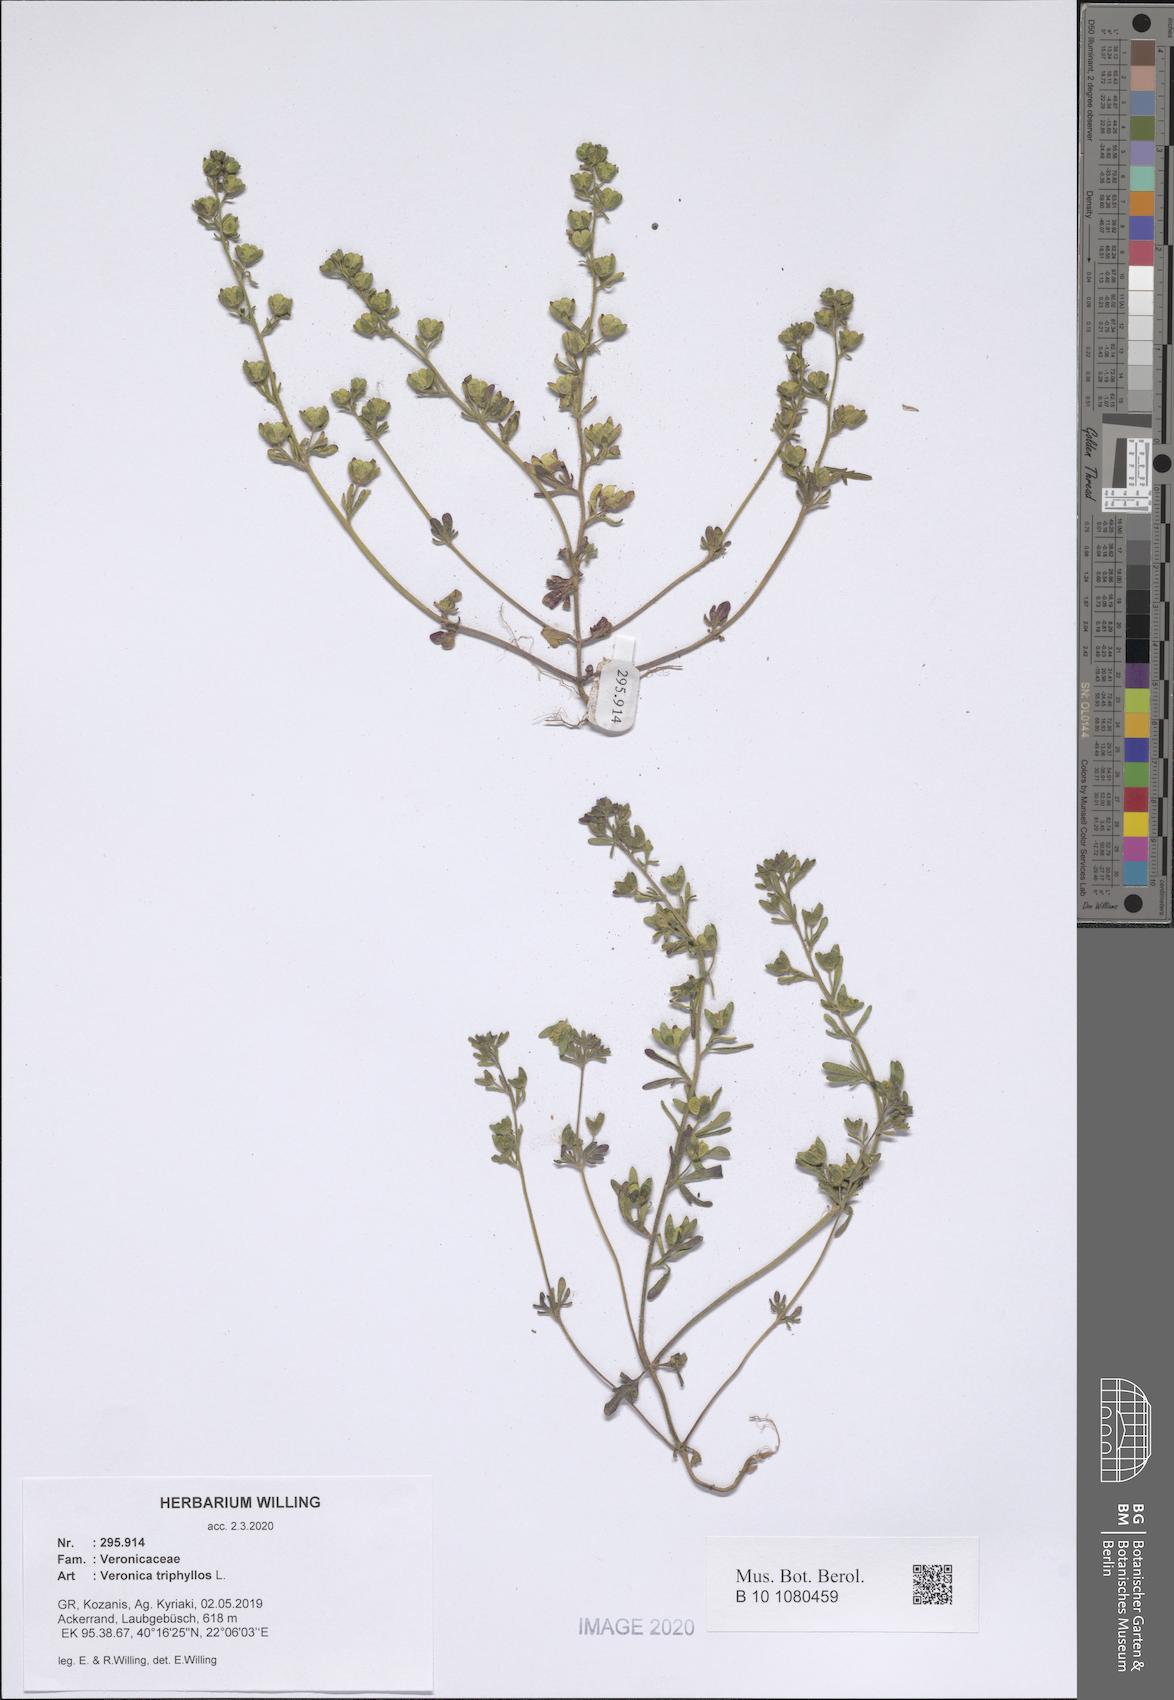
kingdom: Plantae
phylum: Tracheophyta
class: Magnoliopsida
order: Lamiales
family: Plantaginaceae
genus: Veronica
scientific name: Veronica triphyllos
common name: Fingered speedwell
